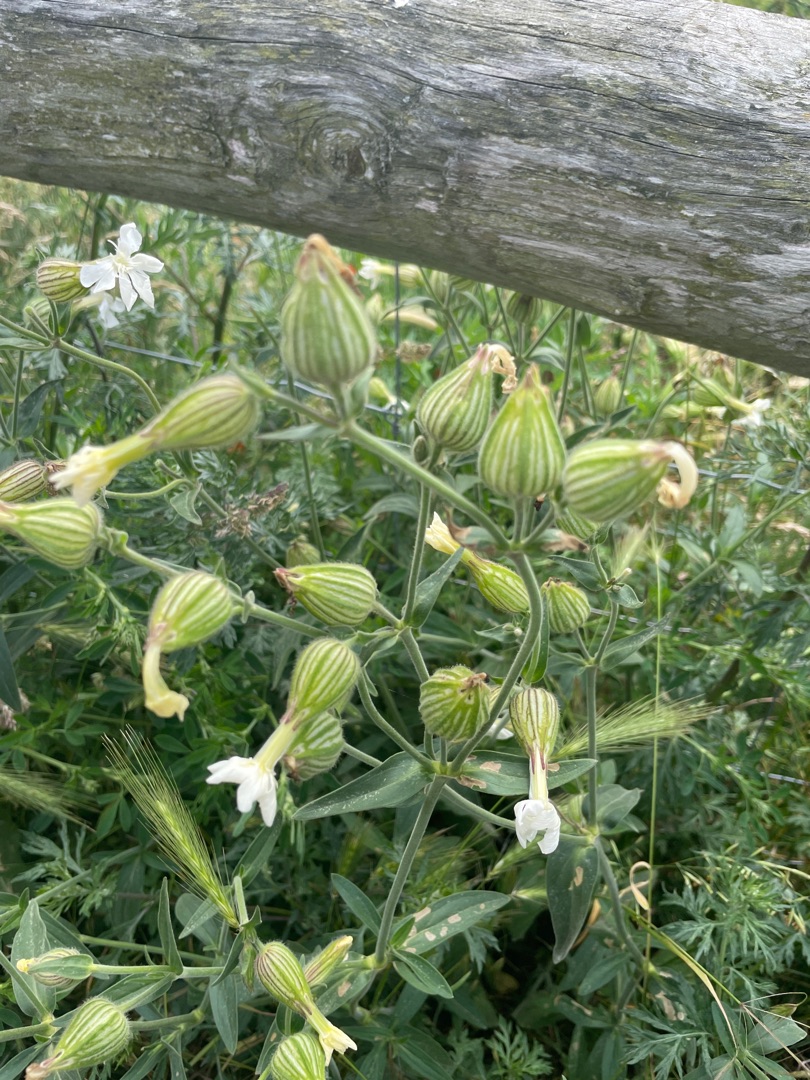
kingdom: Plantae
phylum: Tracheophyta
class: Magnoliopsida
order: Caryophyllales
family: Caryophyllaceae
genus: Silene
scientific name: Silene latifolia
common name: Aftenpragtstjerne
